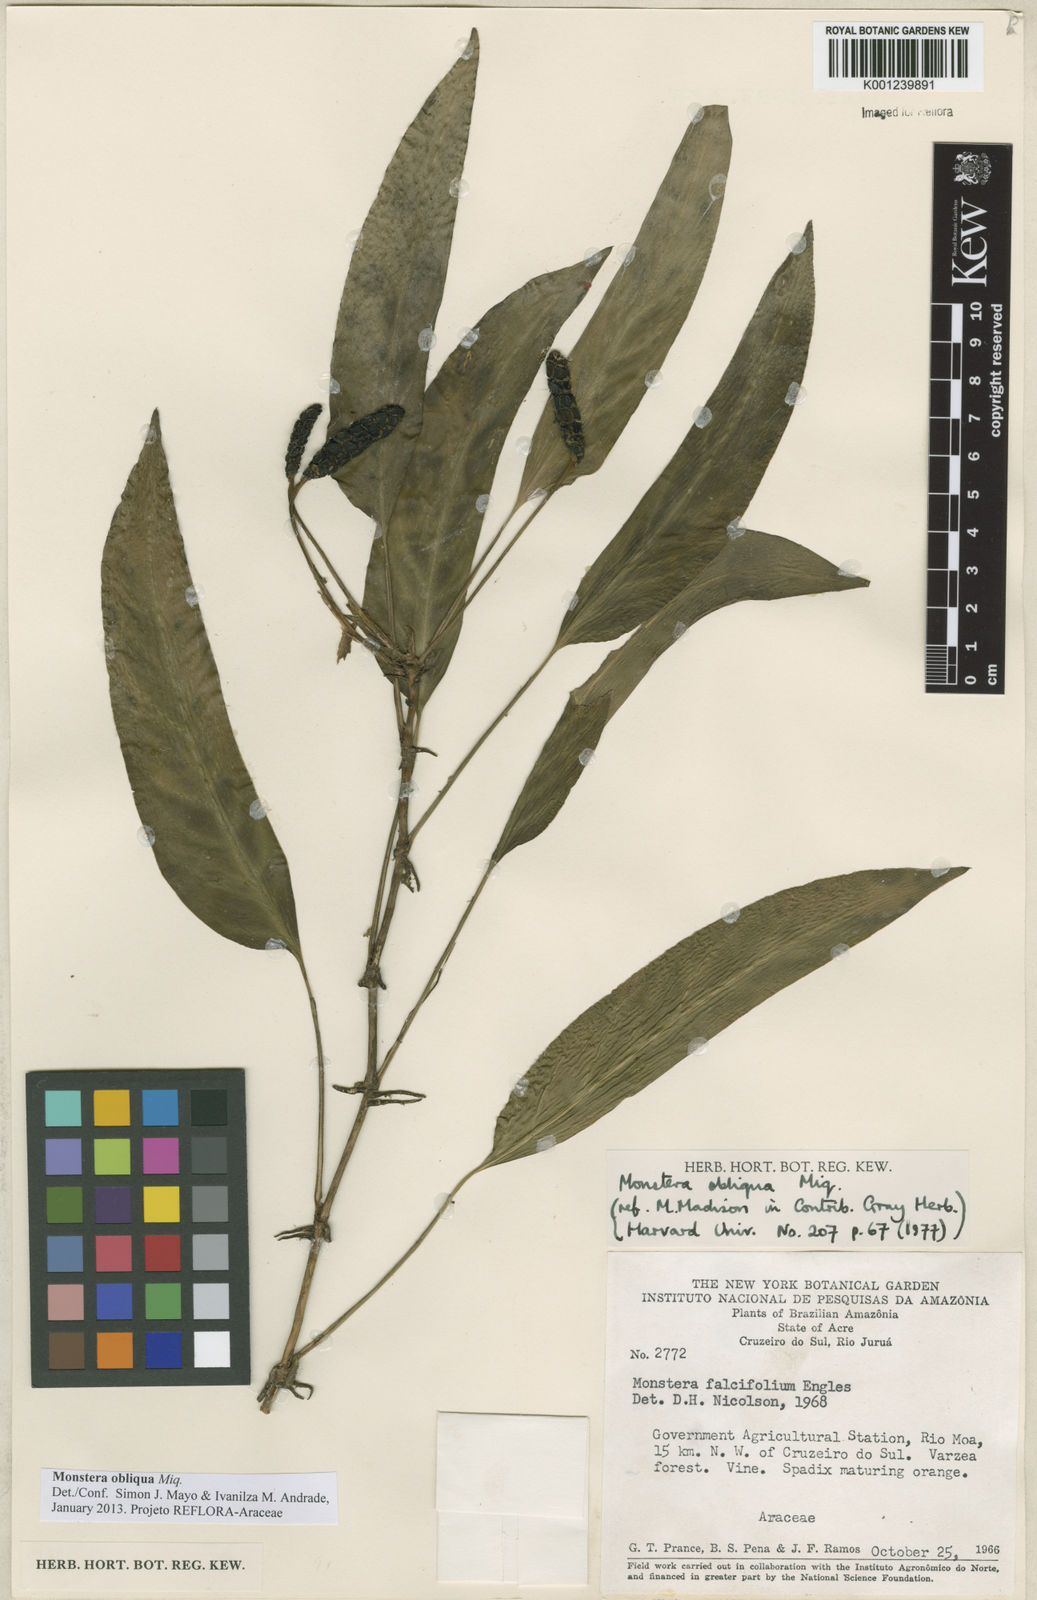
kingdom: Plantae
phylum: Tracheophyta
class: Liliopsida
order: Alismatales
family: Araceae
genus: Monstera
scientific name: Monstera obliqua
